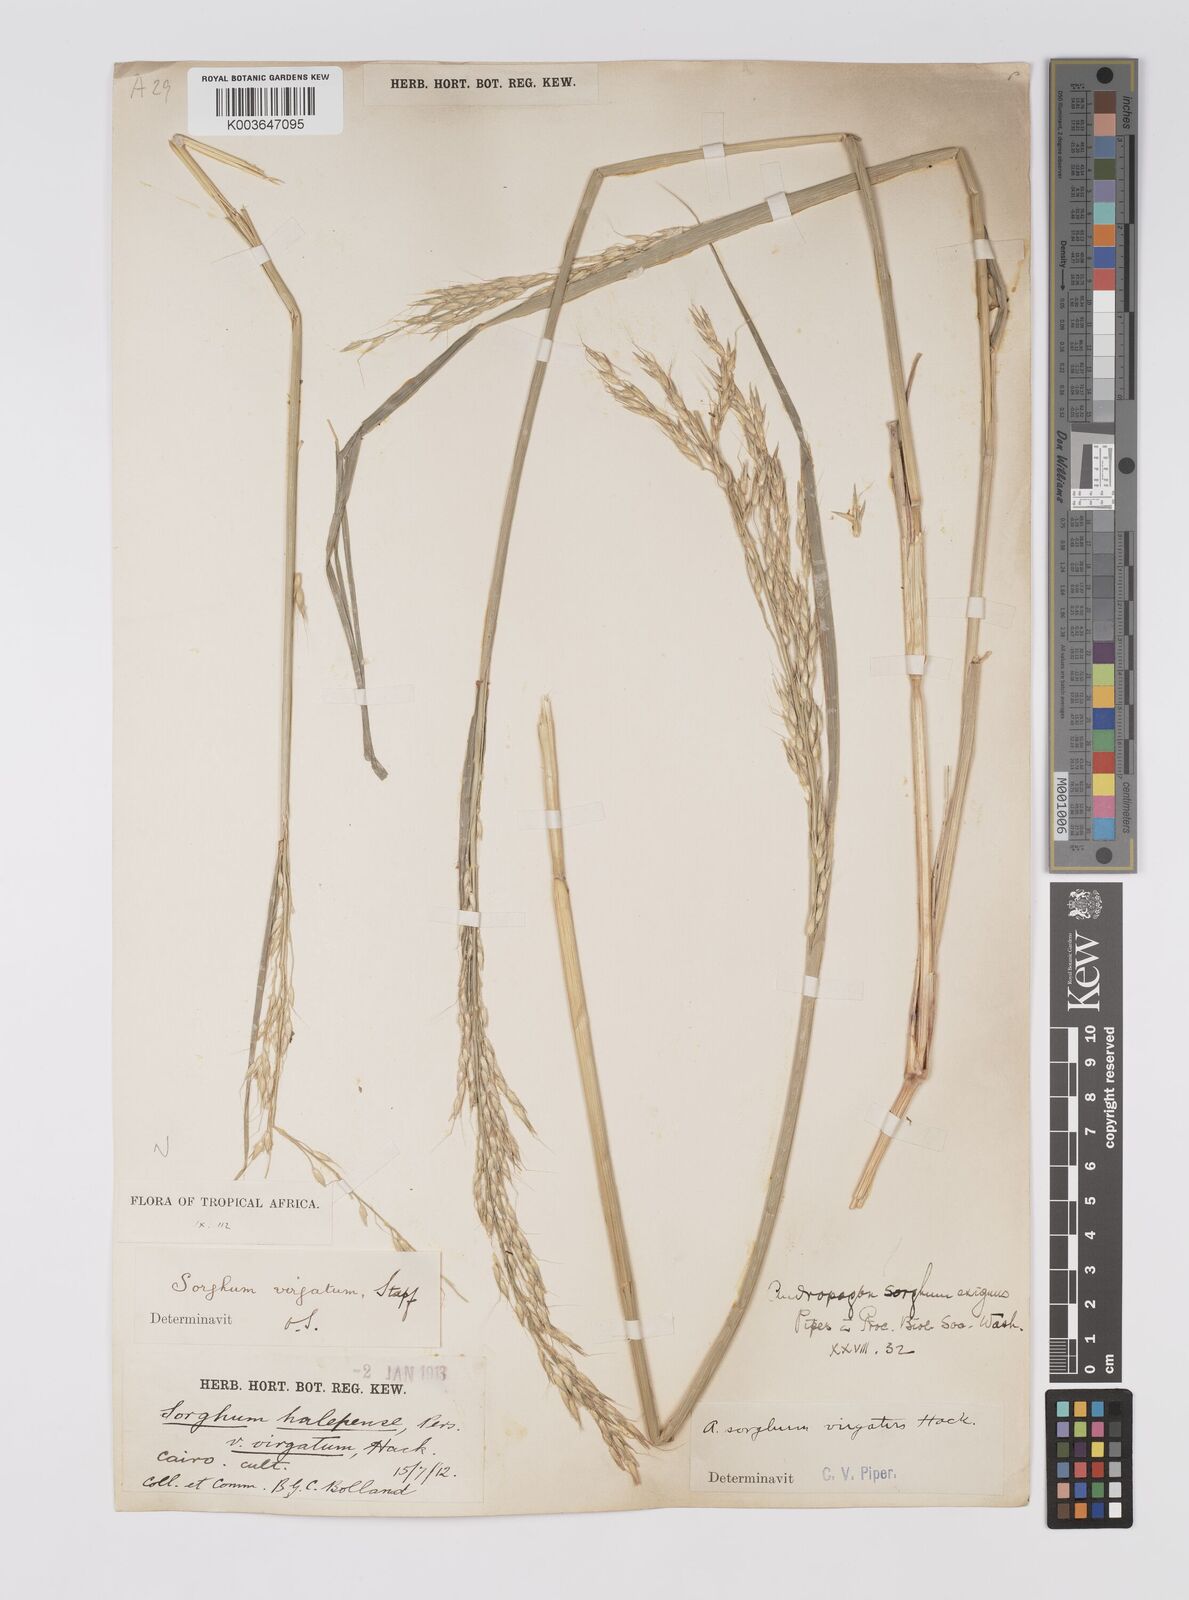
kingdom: Plantae
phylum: Tracheophyta
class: Liliopsida
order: Poales
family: Poaceae
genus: Sorghum
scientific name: Sorghum virgatum
